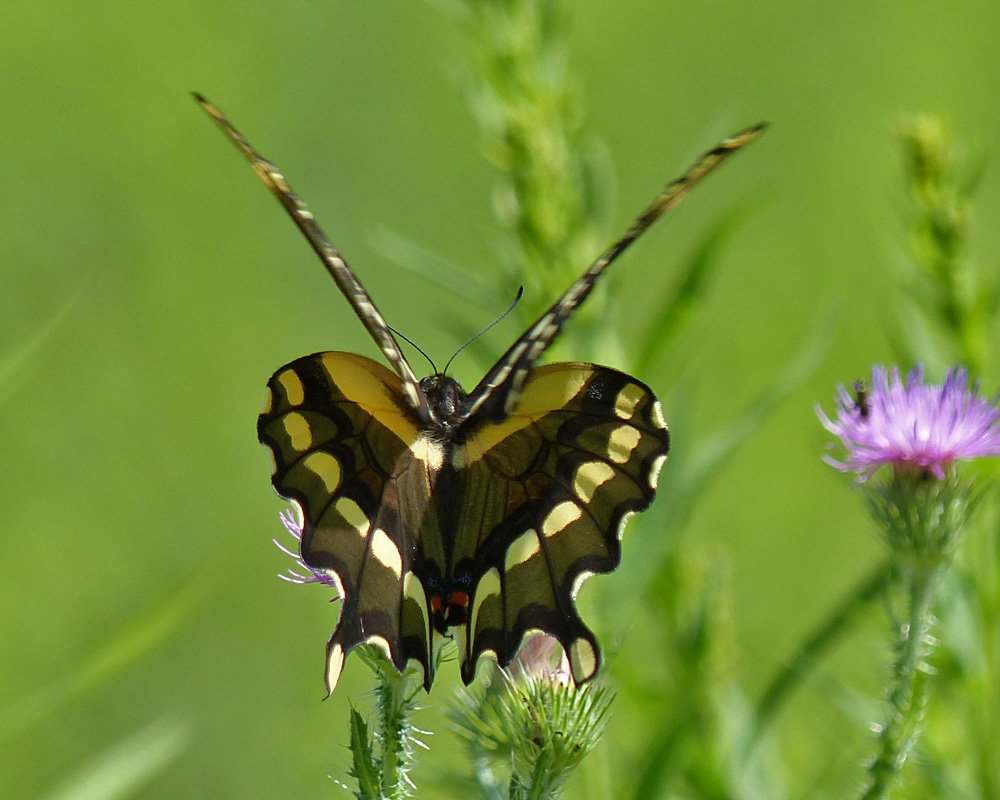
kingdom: Animalia
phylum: Arthropoda
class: Insecta
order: Lepidoptera
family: Papilionidae
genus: Papilio
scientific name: Papilio cresphontes
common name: Eastern Giant Swallowtail
